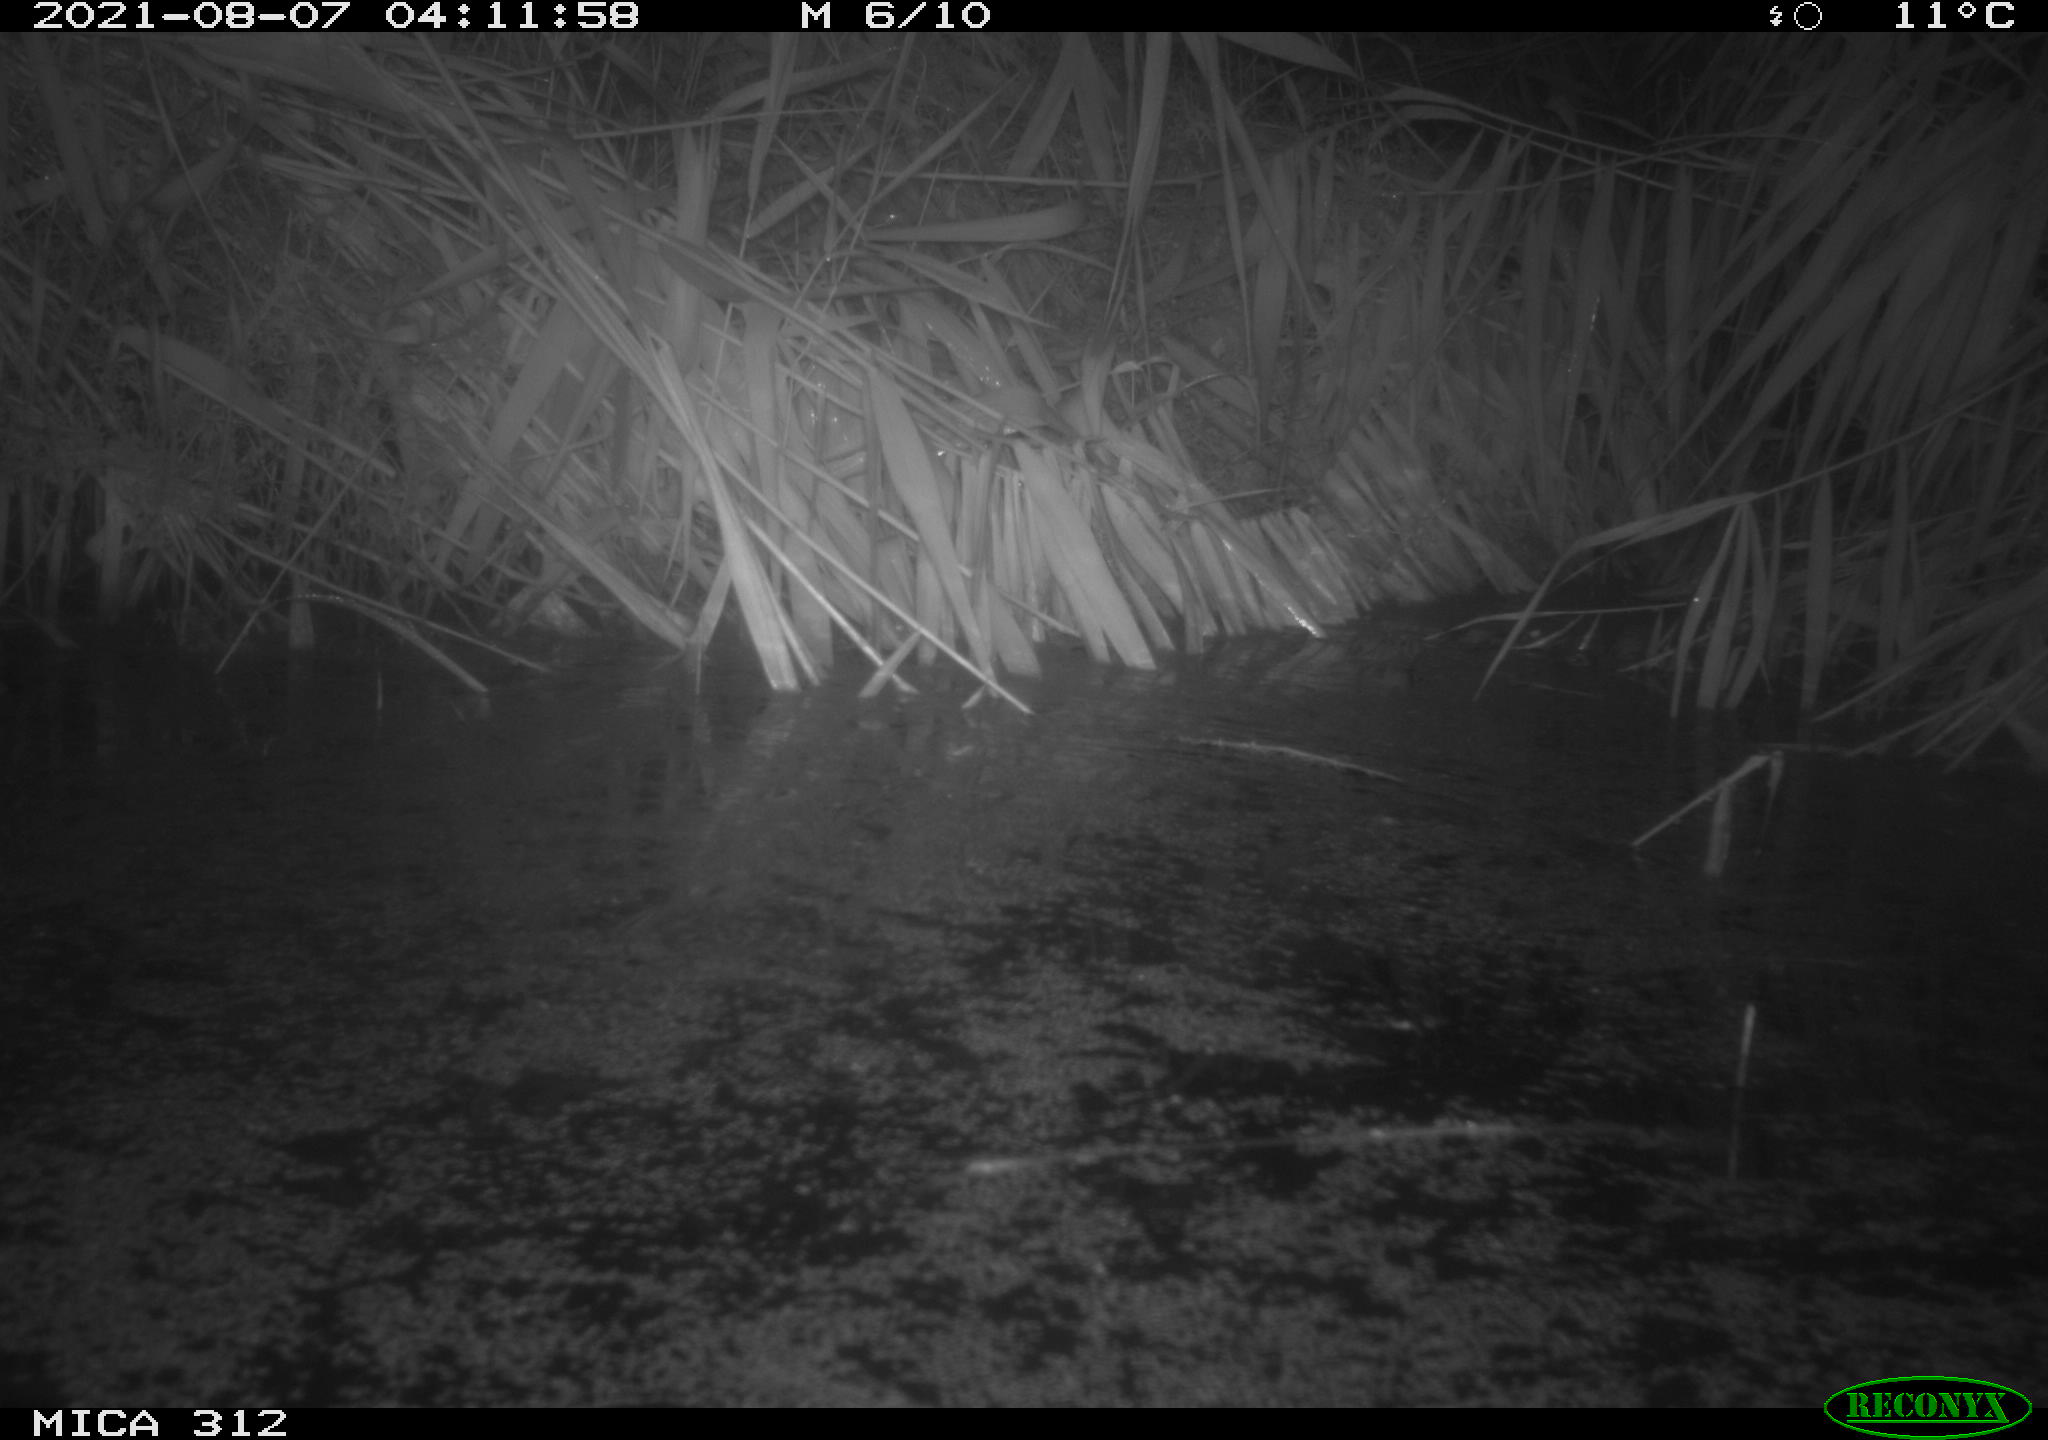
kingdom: Animalia
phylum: Chordata
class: Mammalia
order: Rodentia
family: Muridae
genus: Rattus
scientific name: Rattus norvegicus
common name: Brown rat
